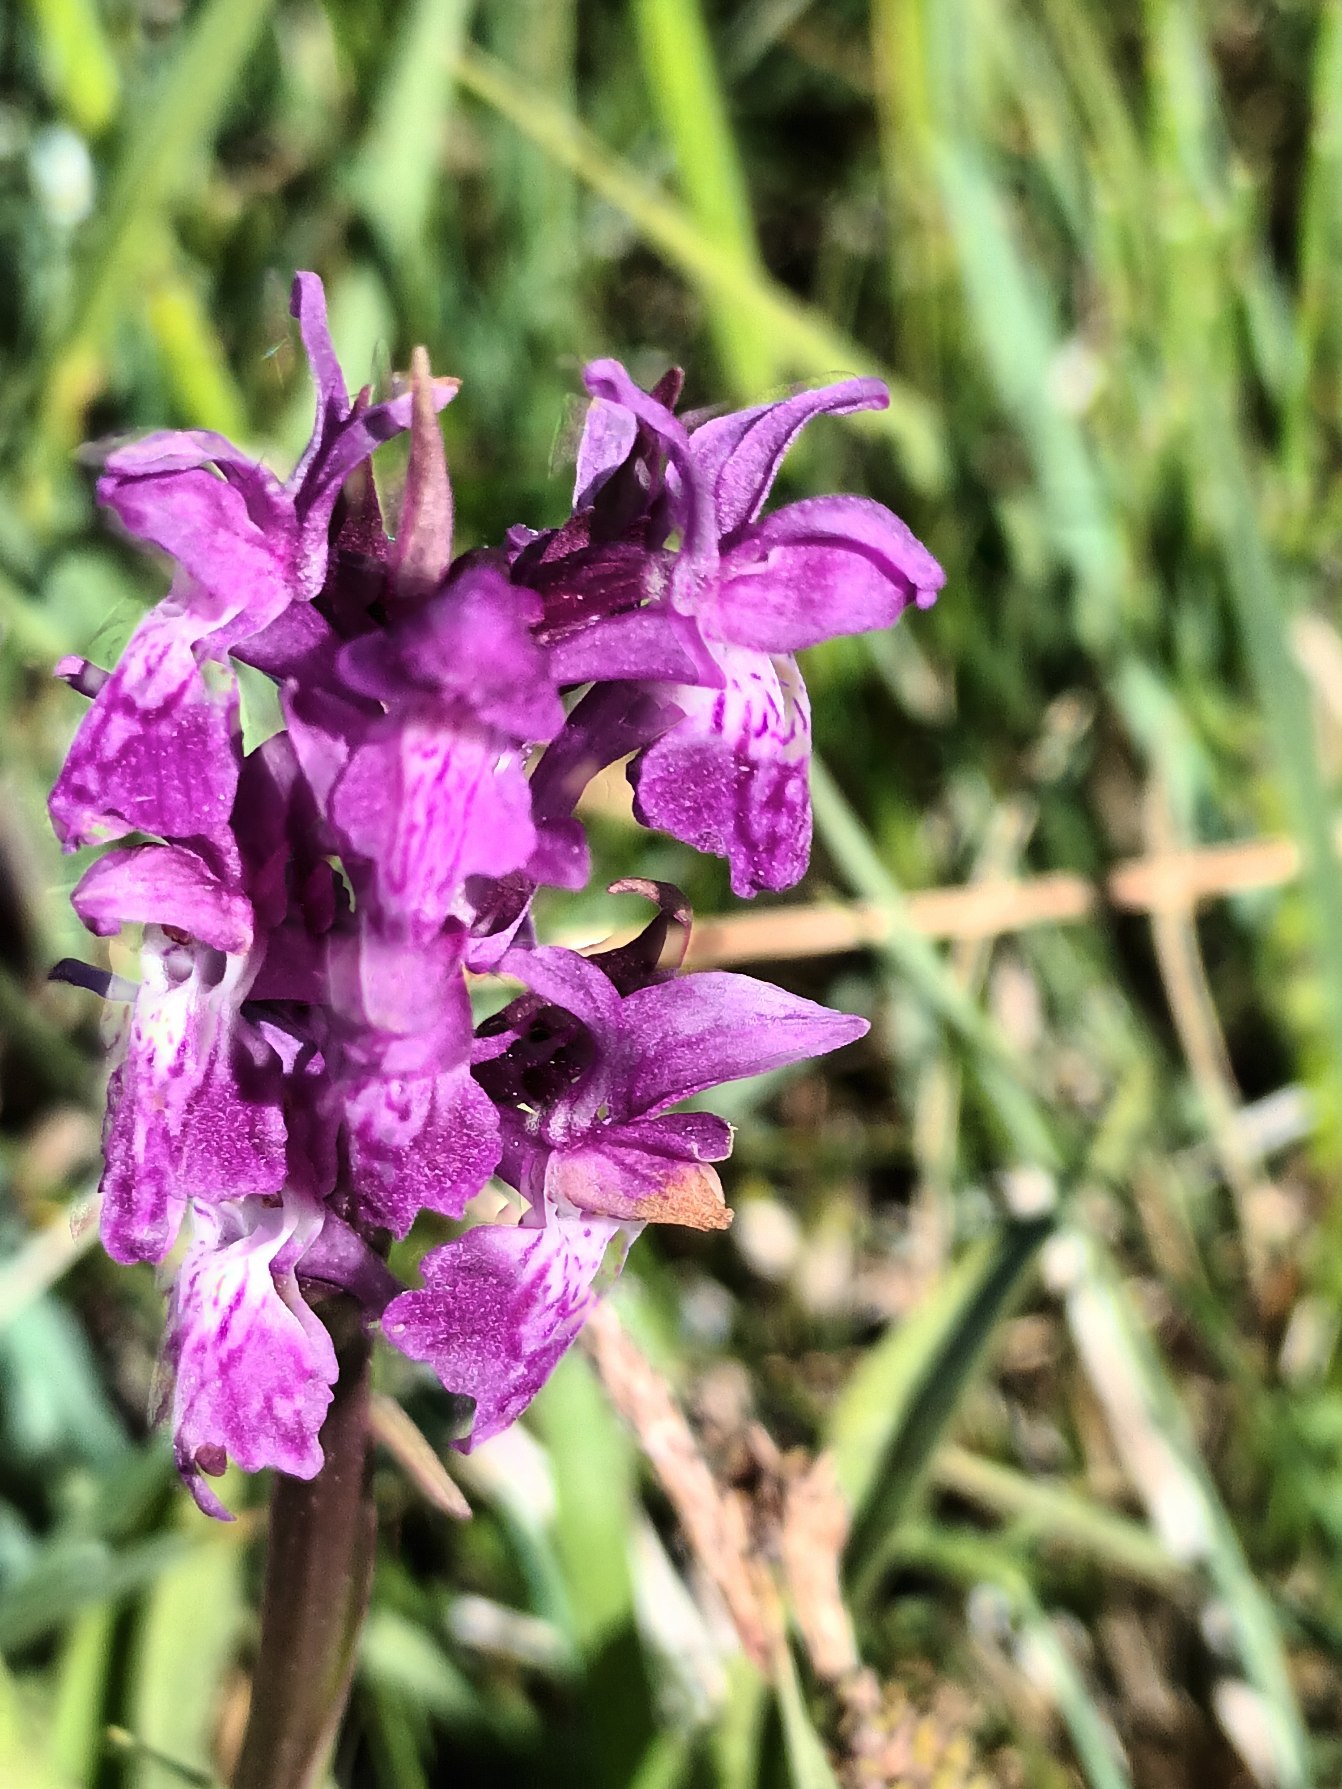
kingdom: Plantae
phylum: Tracheophyta
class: Liliopsida
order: Asparagales
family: Orchidaceae
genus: Dactylorhiza
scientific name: Dactylorhiza incarnata
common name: Kødfarvet gøgeurt
